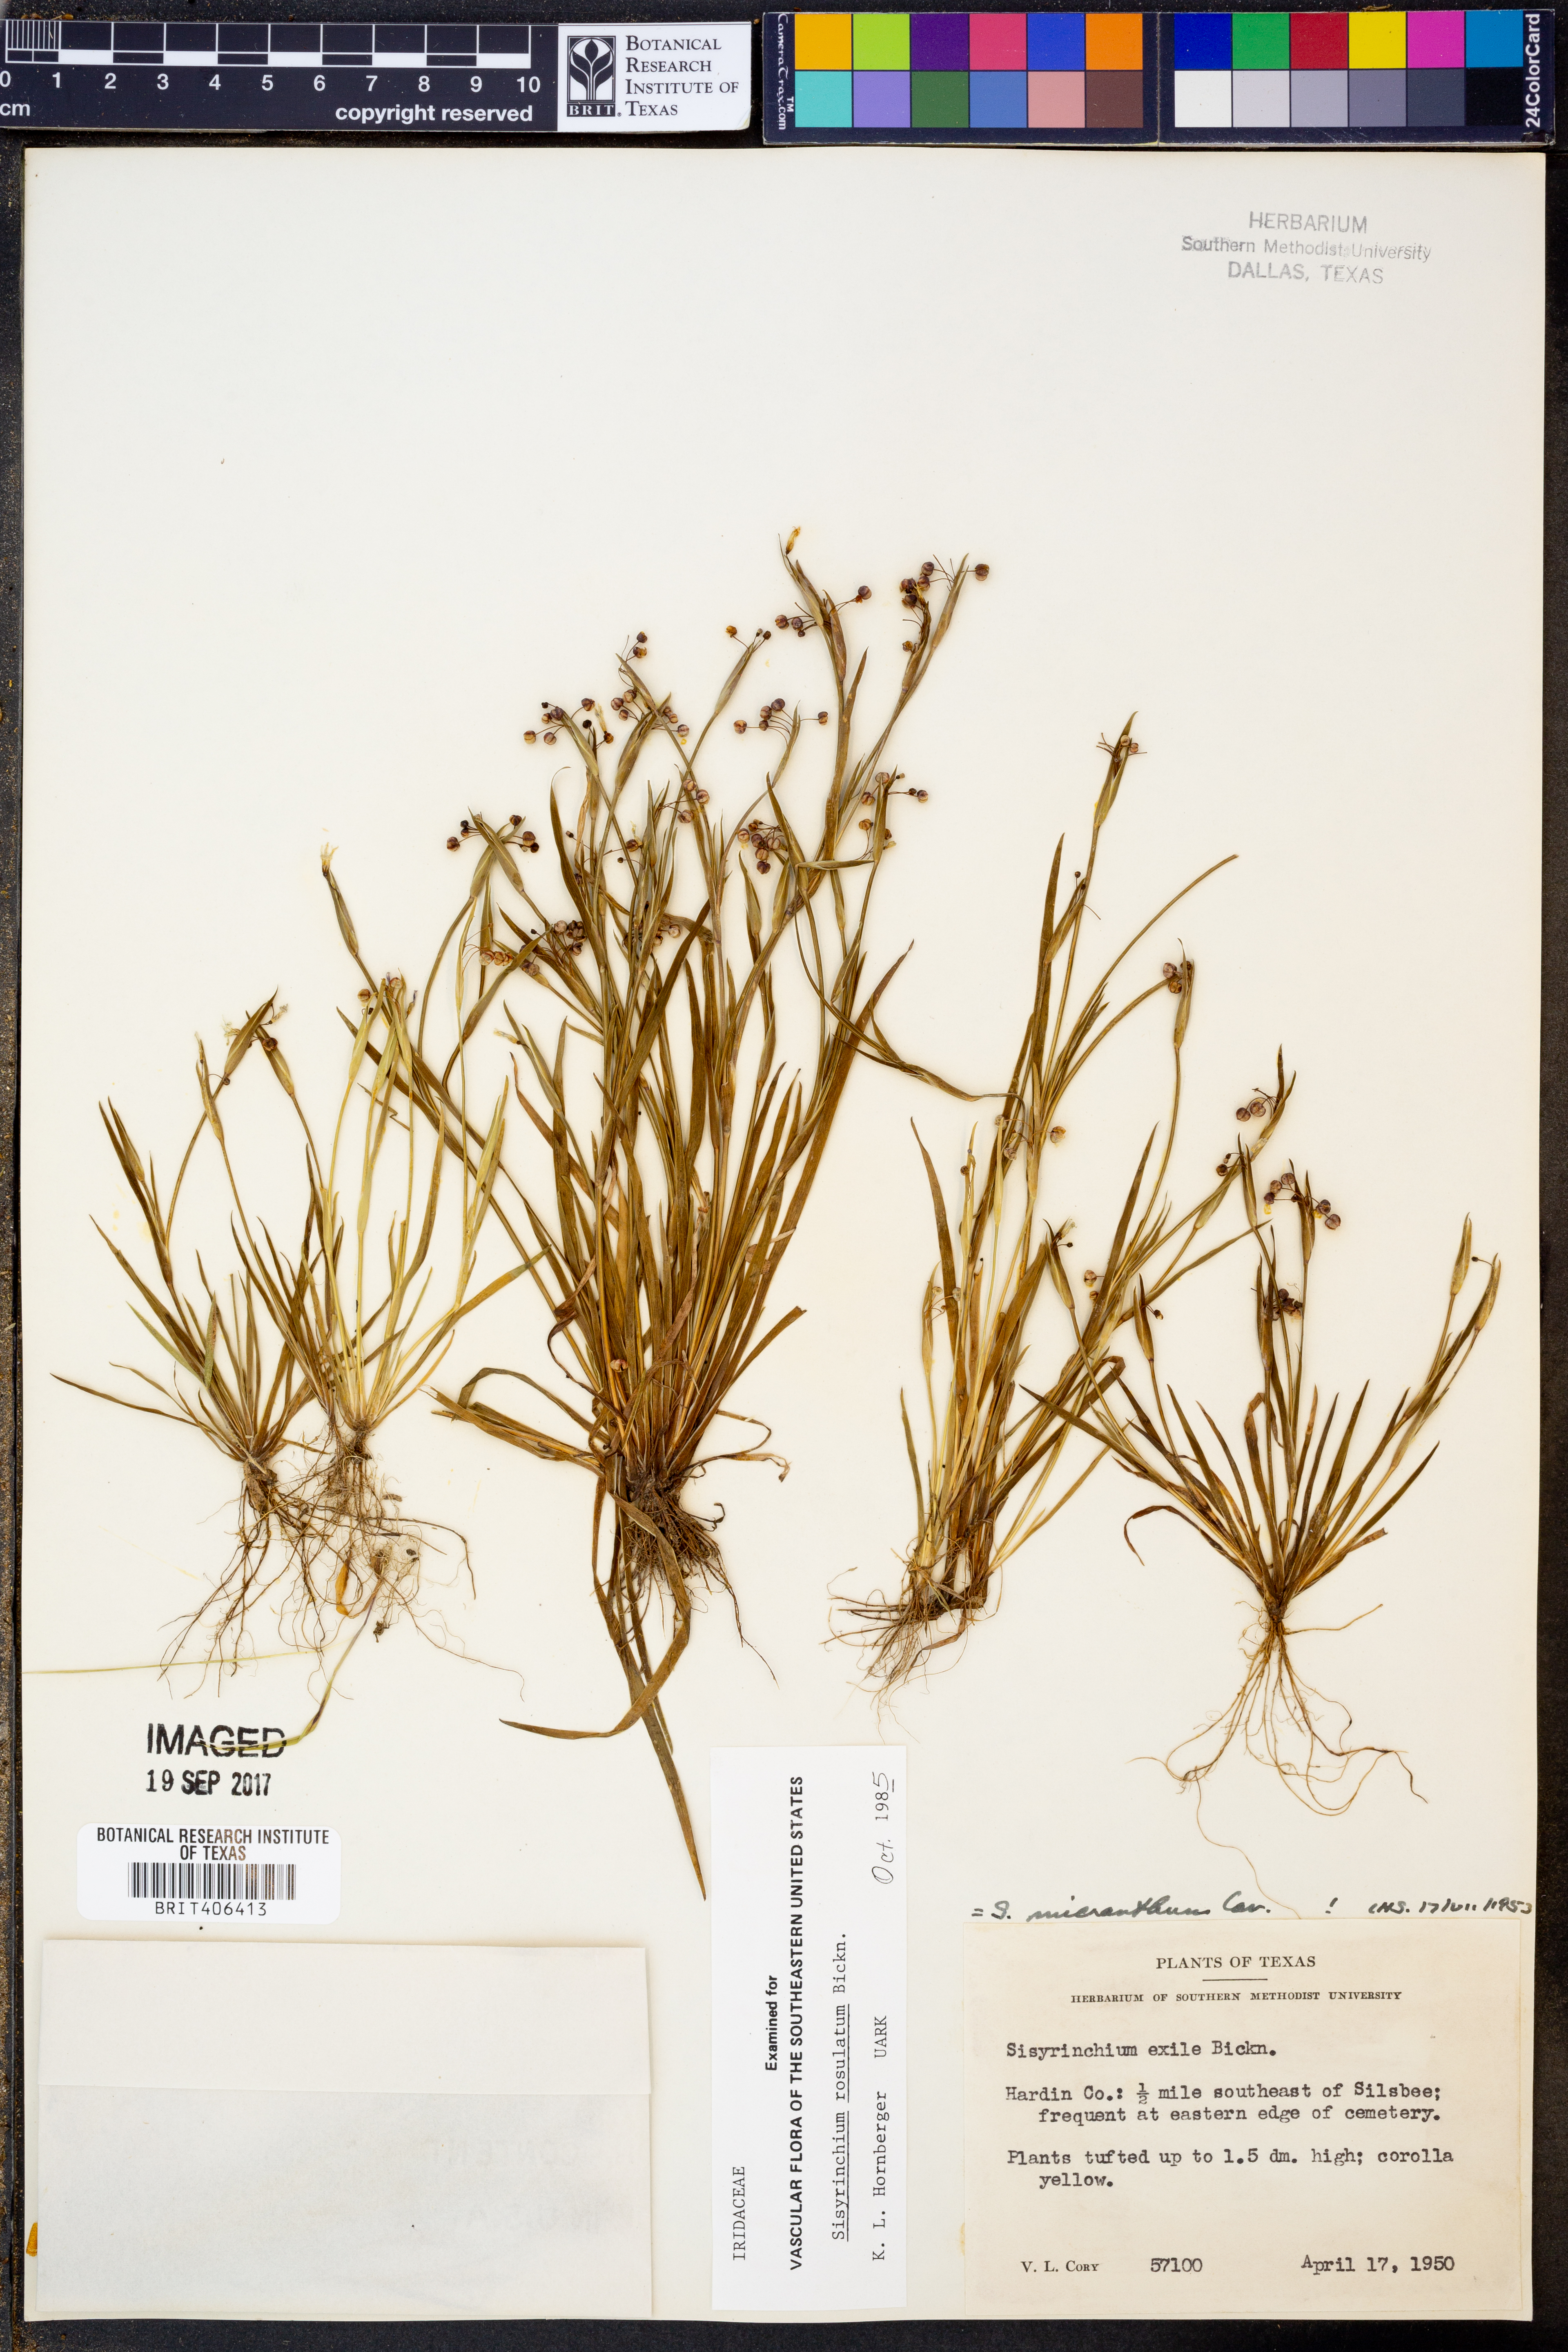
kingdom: Plantae
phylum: Tracheophyta
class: Liliopsida
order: Asparagales
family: Iridaceae
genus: Sisyrinchium
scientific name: Sisyrinchium rosulatum
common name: Annual blue-eyed grass
